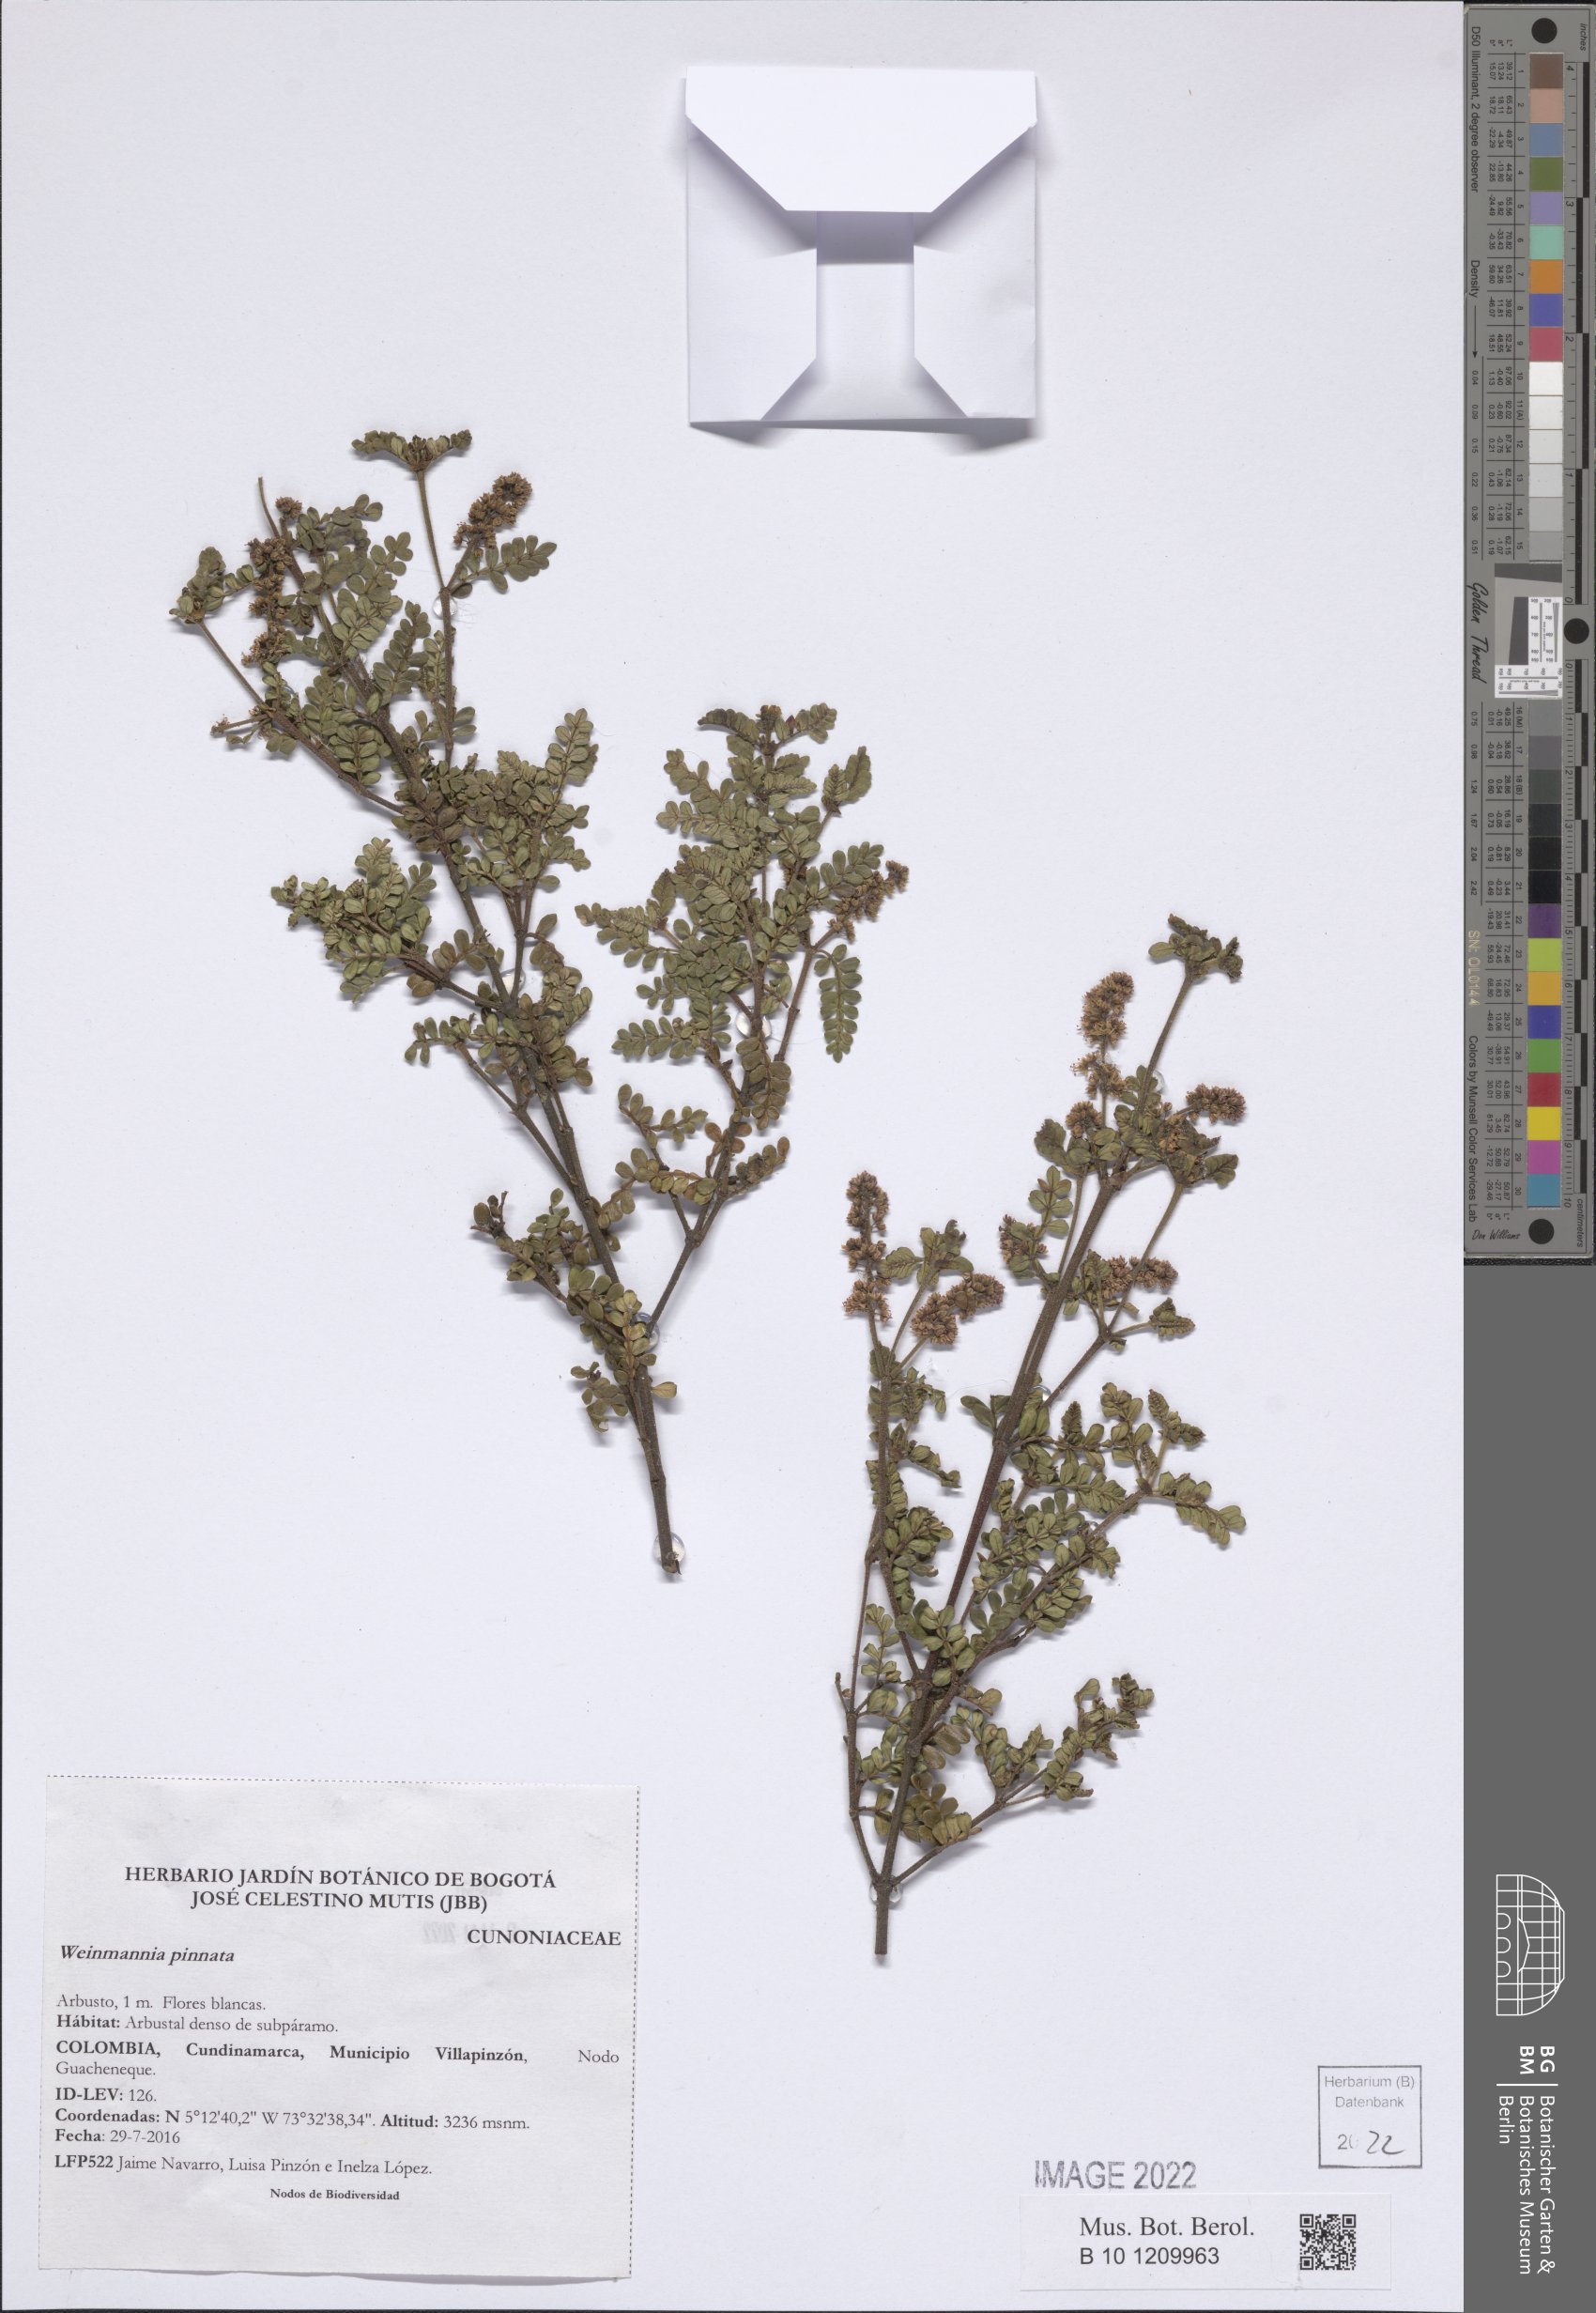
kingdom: Plantae
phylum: Tracheophyta
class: Magnoliopsida
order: Oxalidales
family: Cunoniaceae
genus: Weinmannia
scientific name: Weinmannia pinnata
